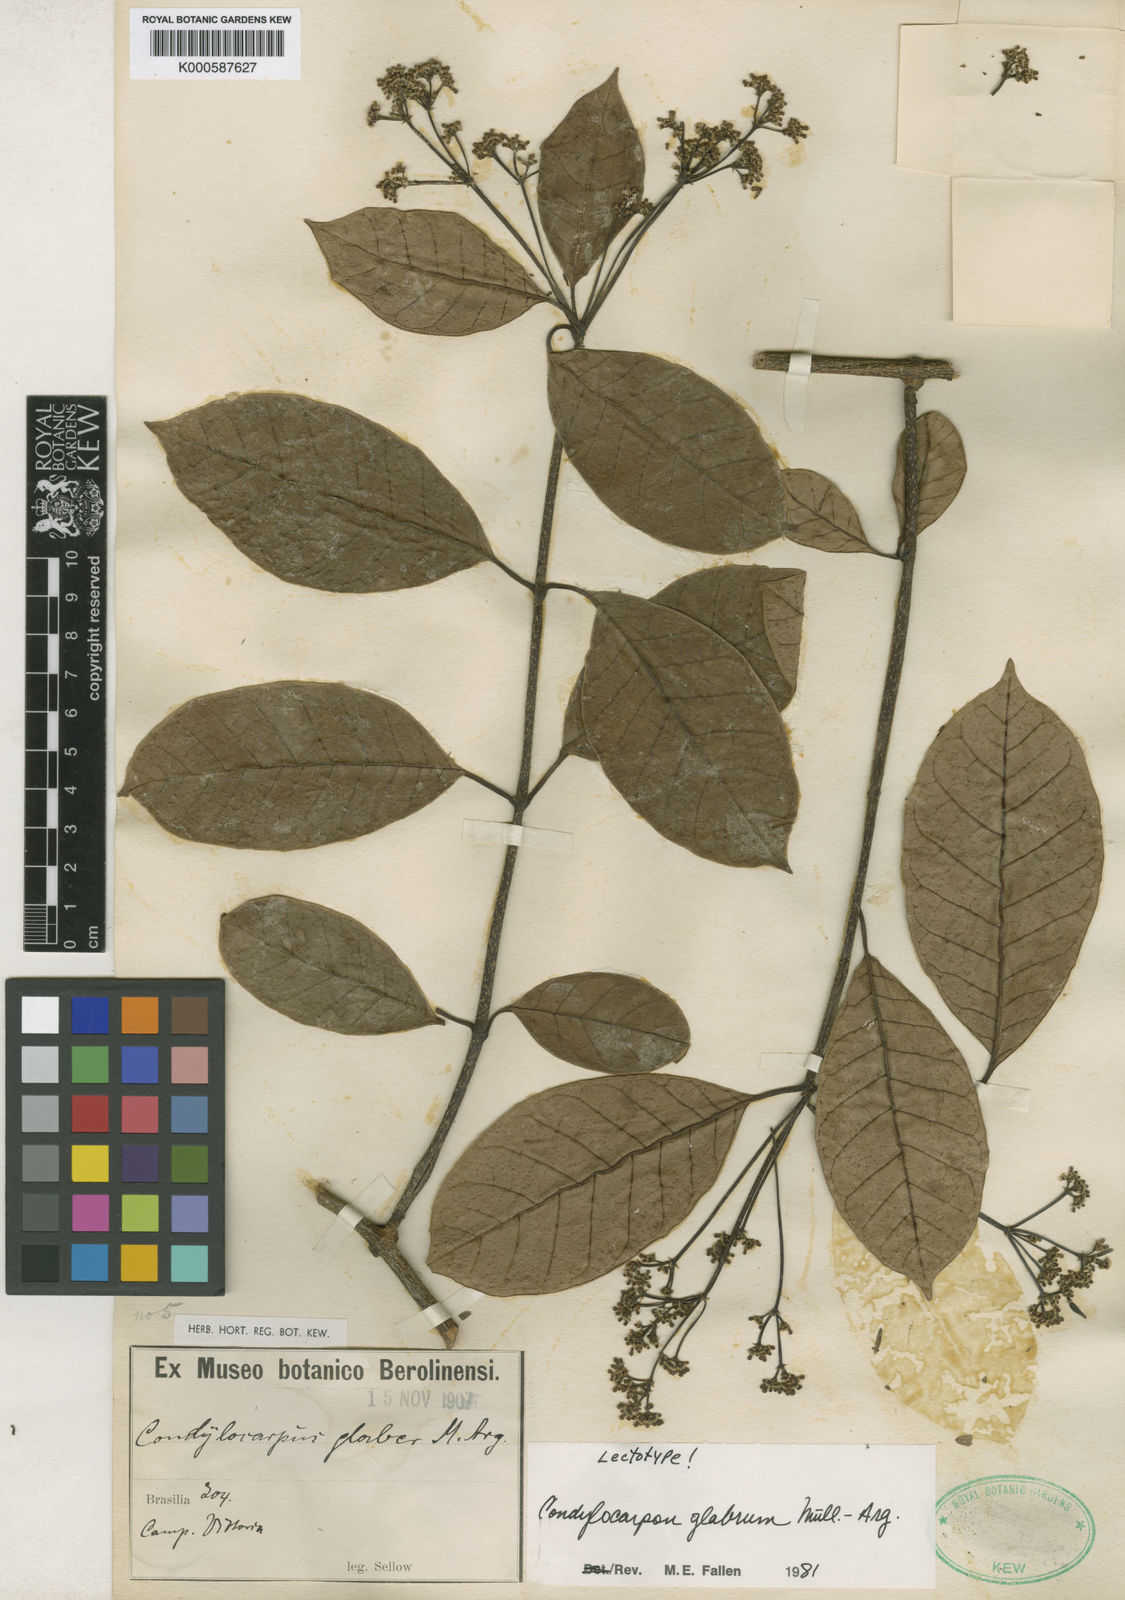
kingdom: Plantae
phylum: Tracheophyta
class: Magnoliopsida
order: Gentianales
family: Apocynaceae
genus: Condylocarpon
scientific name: Condylocarpon
